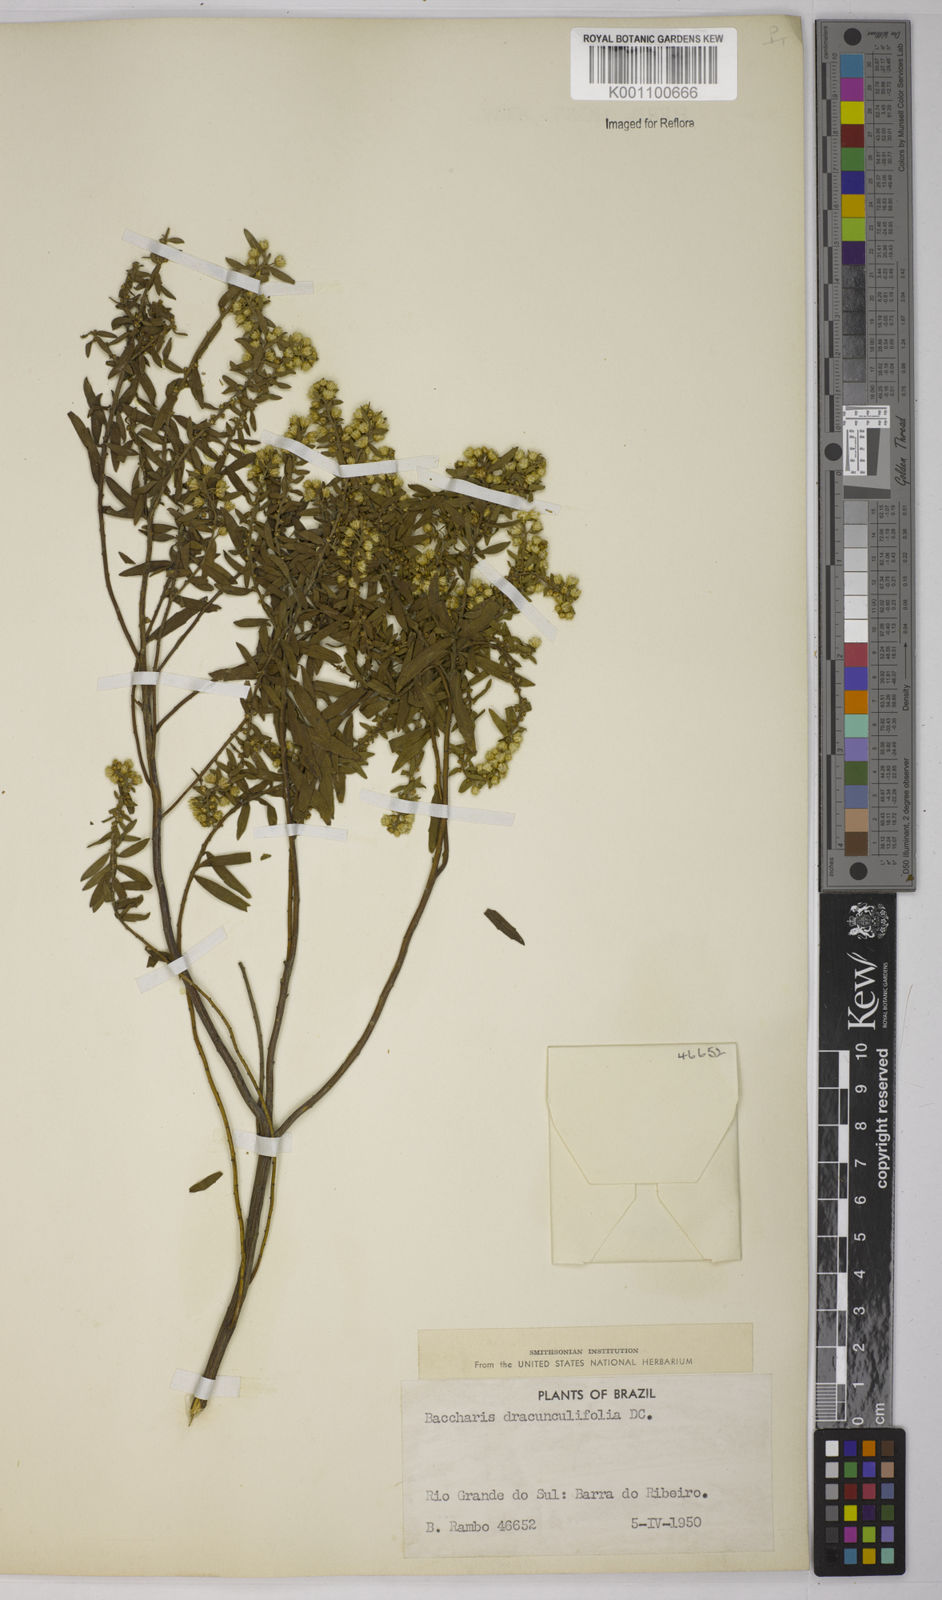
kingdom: Plantae
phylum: Tracheophyta
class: Magnoliopsida
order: Asterales
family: Asteraceae
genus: Baccharis
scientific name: Baccharis dracunculifolia
